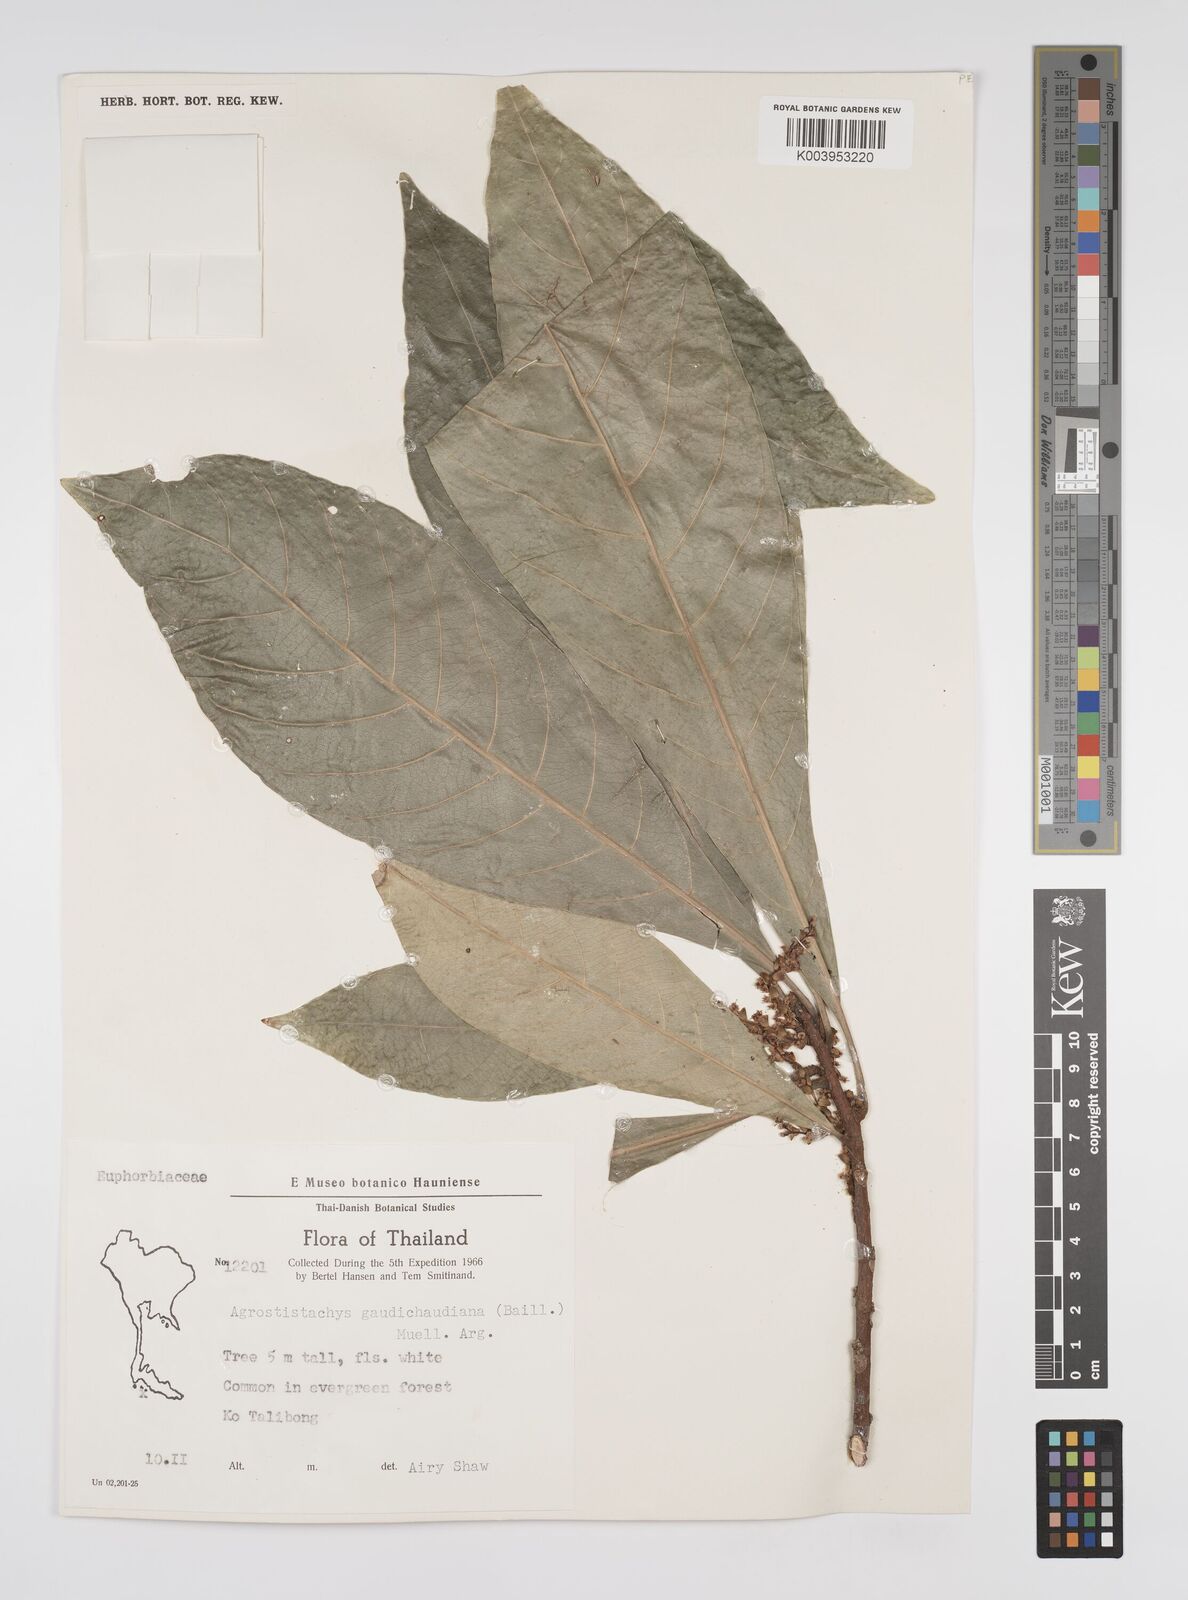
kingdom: Plantae
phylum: Tracheophyta
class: Magnoliopsida
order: Malpighiales
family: Euphorbiaceae
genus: Agrostistachys
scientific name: Agrostistachys gaudichaudii
